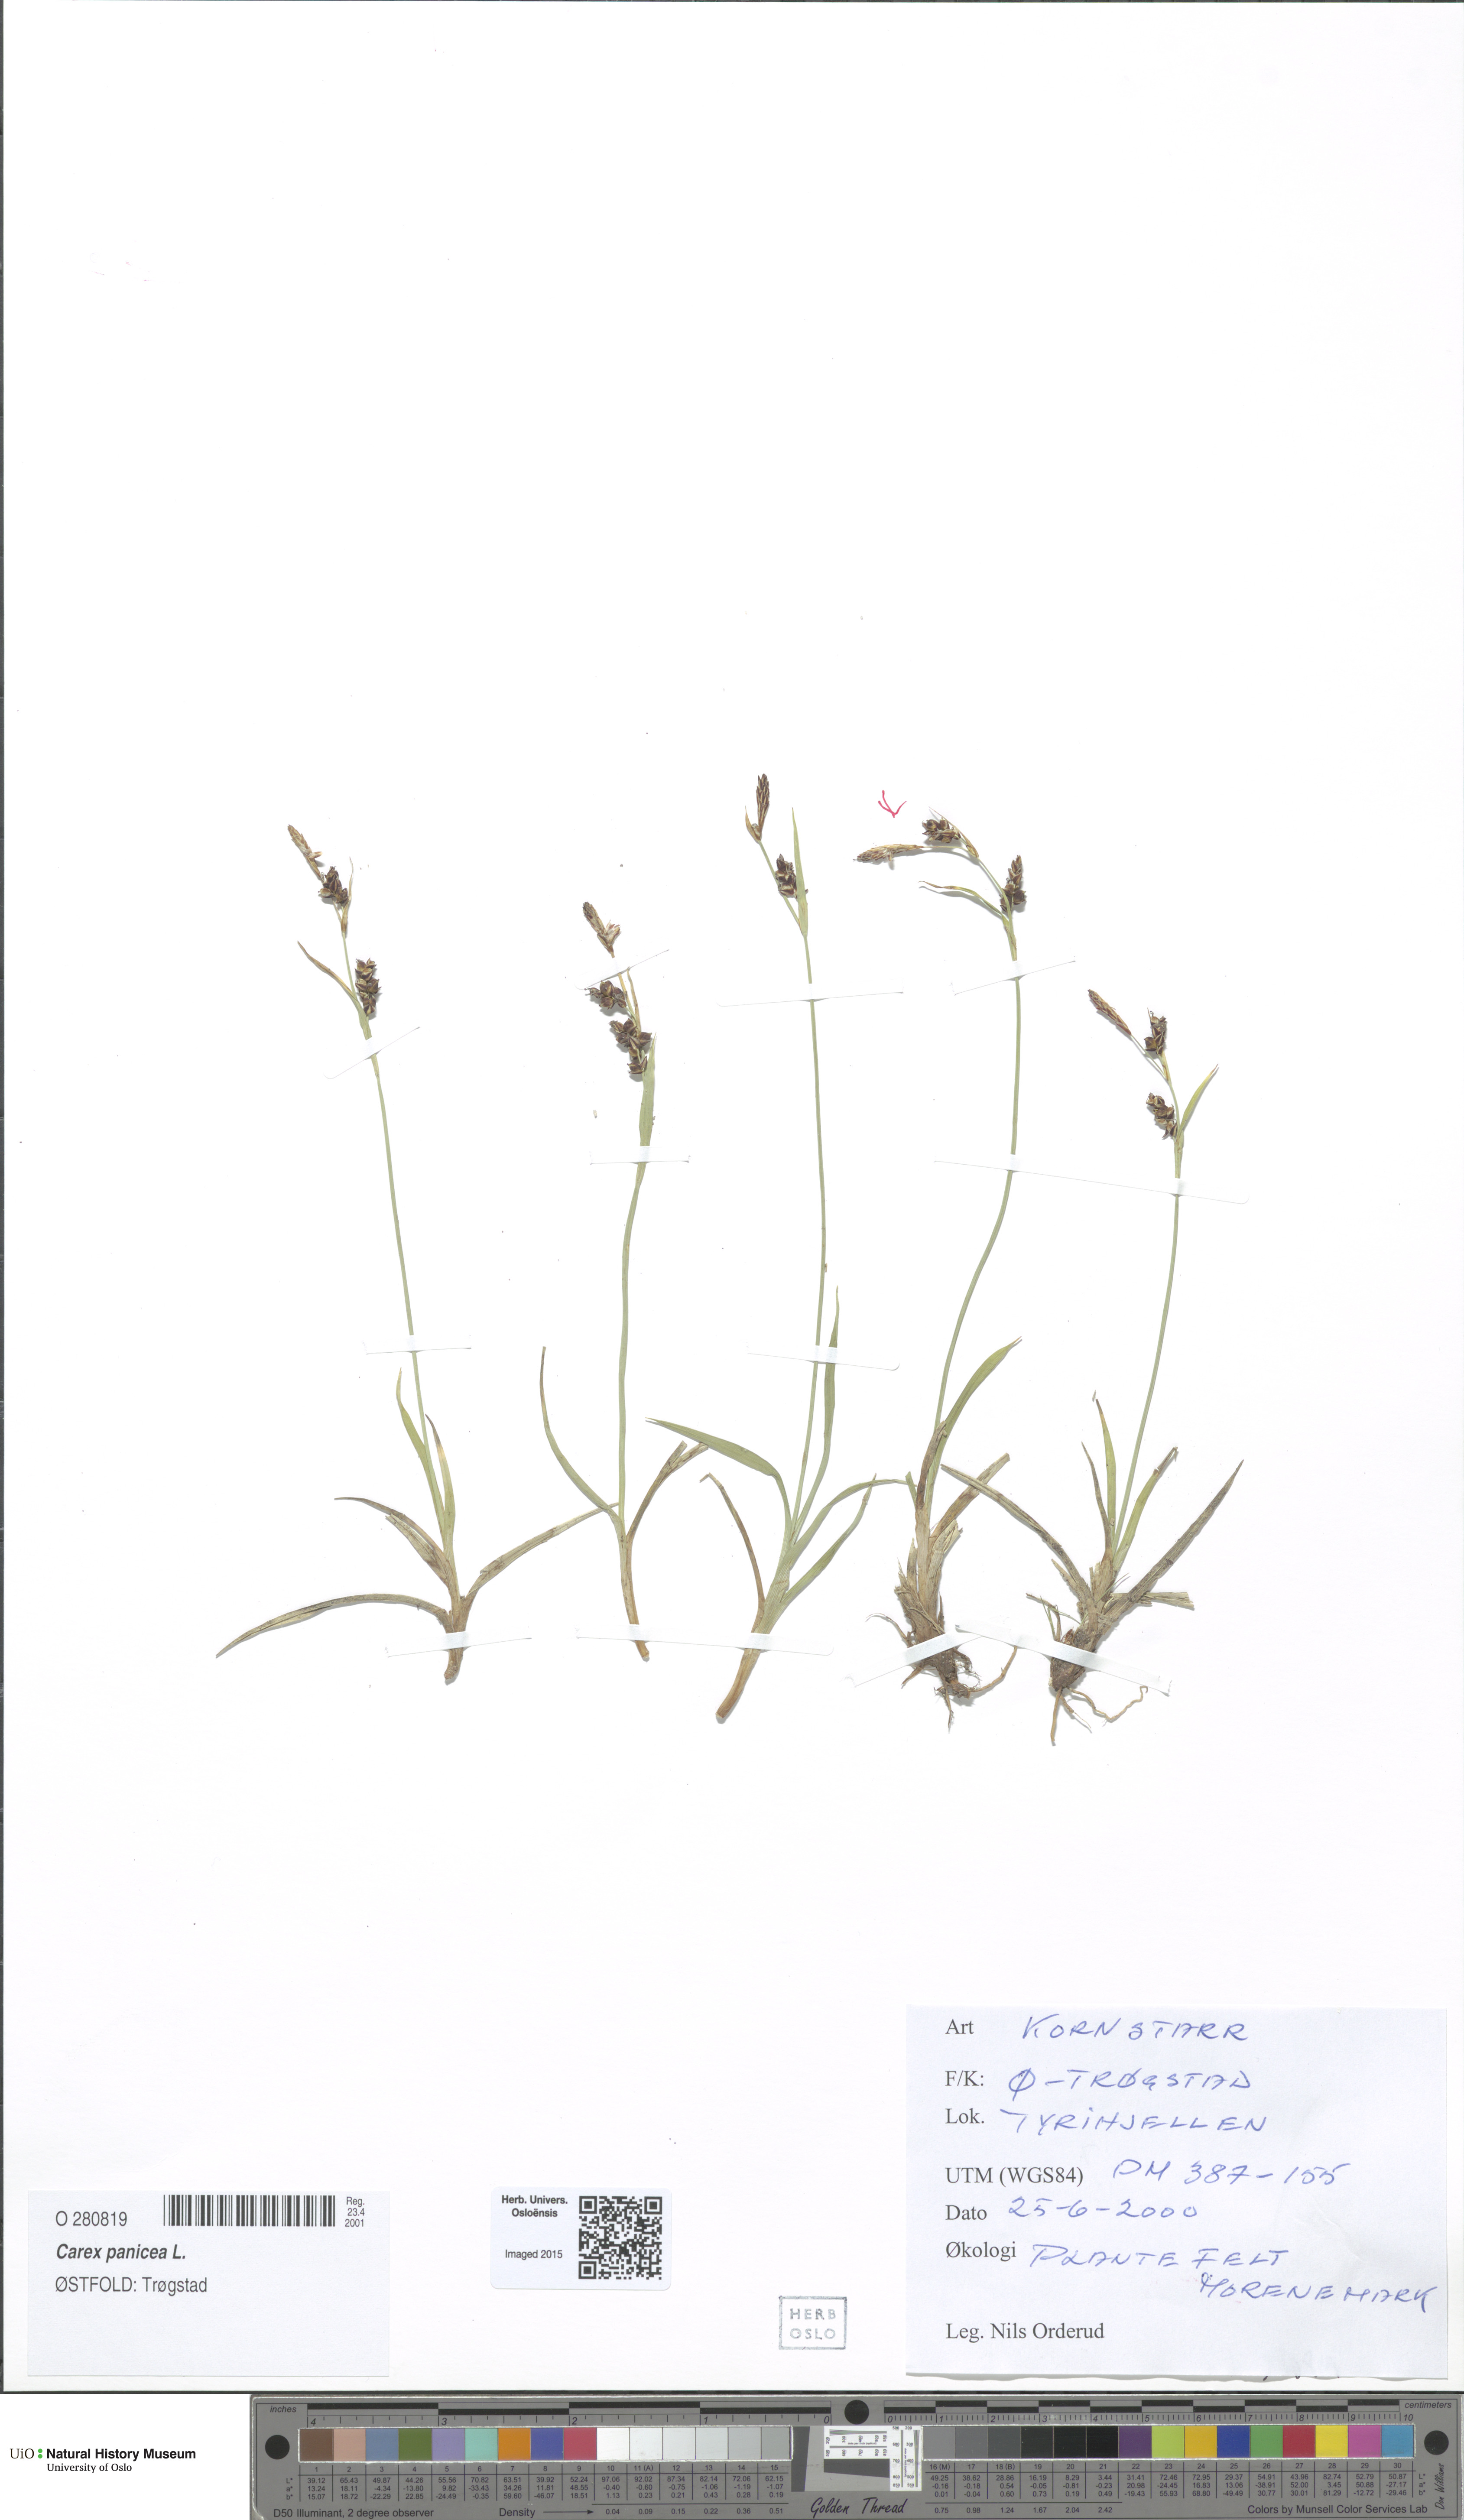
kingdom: Plantae
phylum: Tracheophyta
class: Liliopsida
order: Poales
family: Cyperaceae
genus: Carex
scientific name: Carex panicea
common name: Carnation sedge
